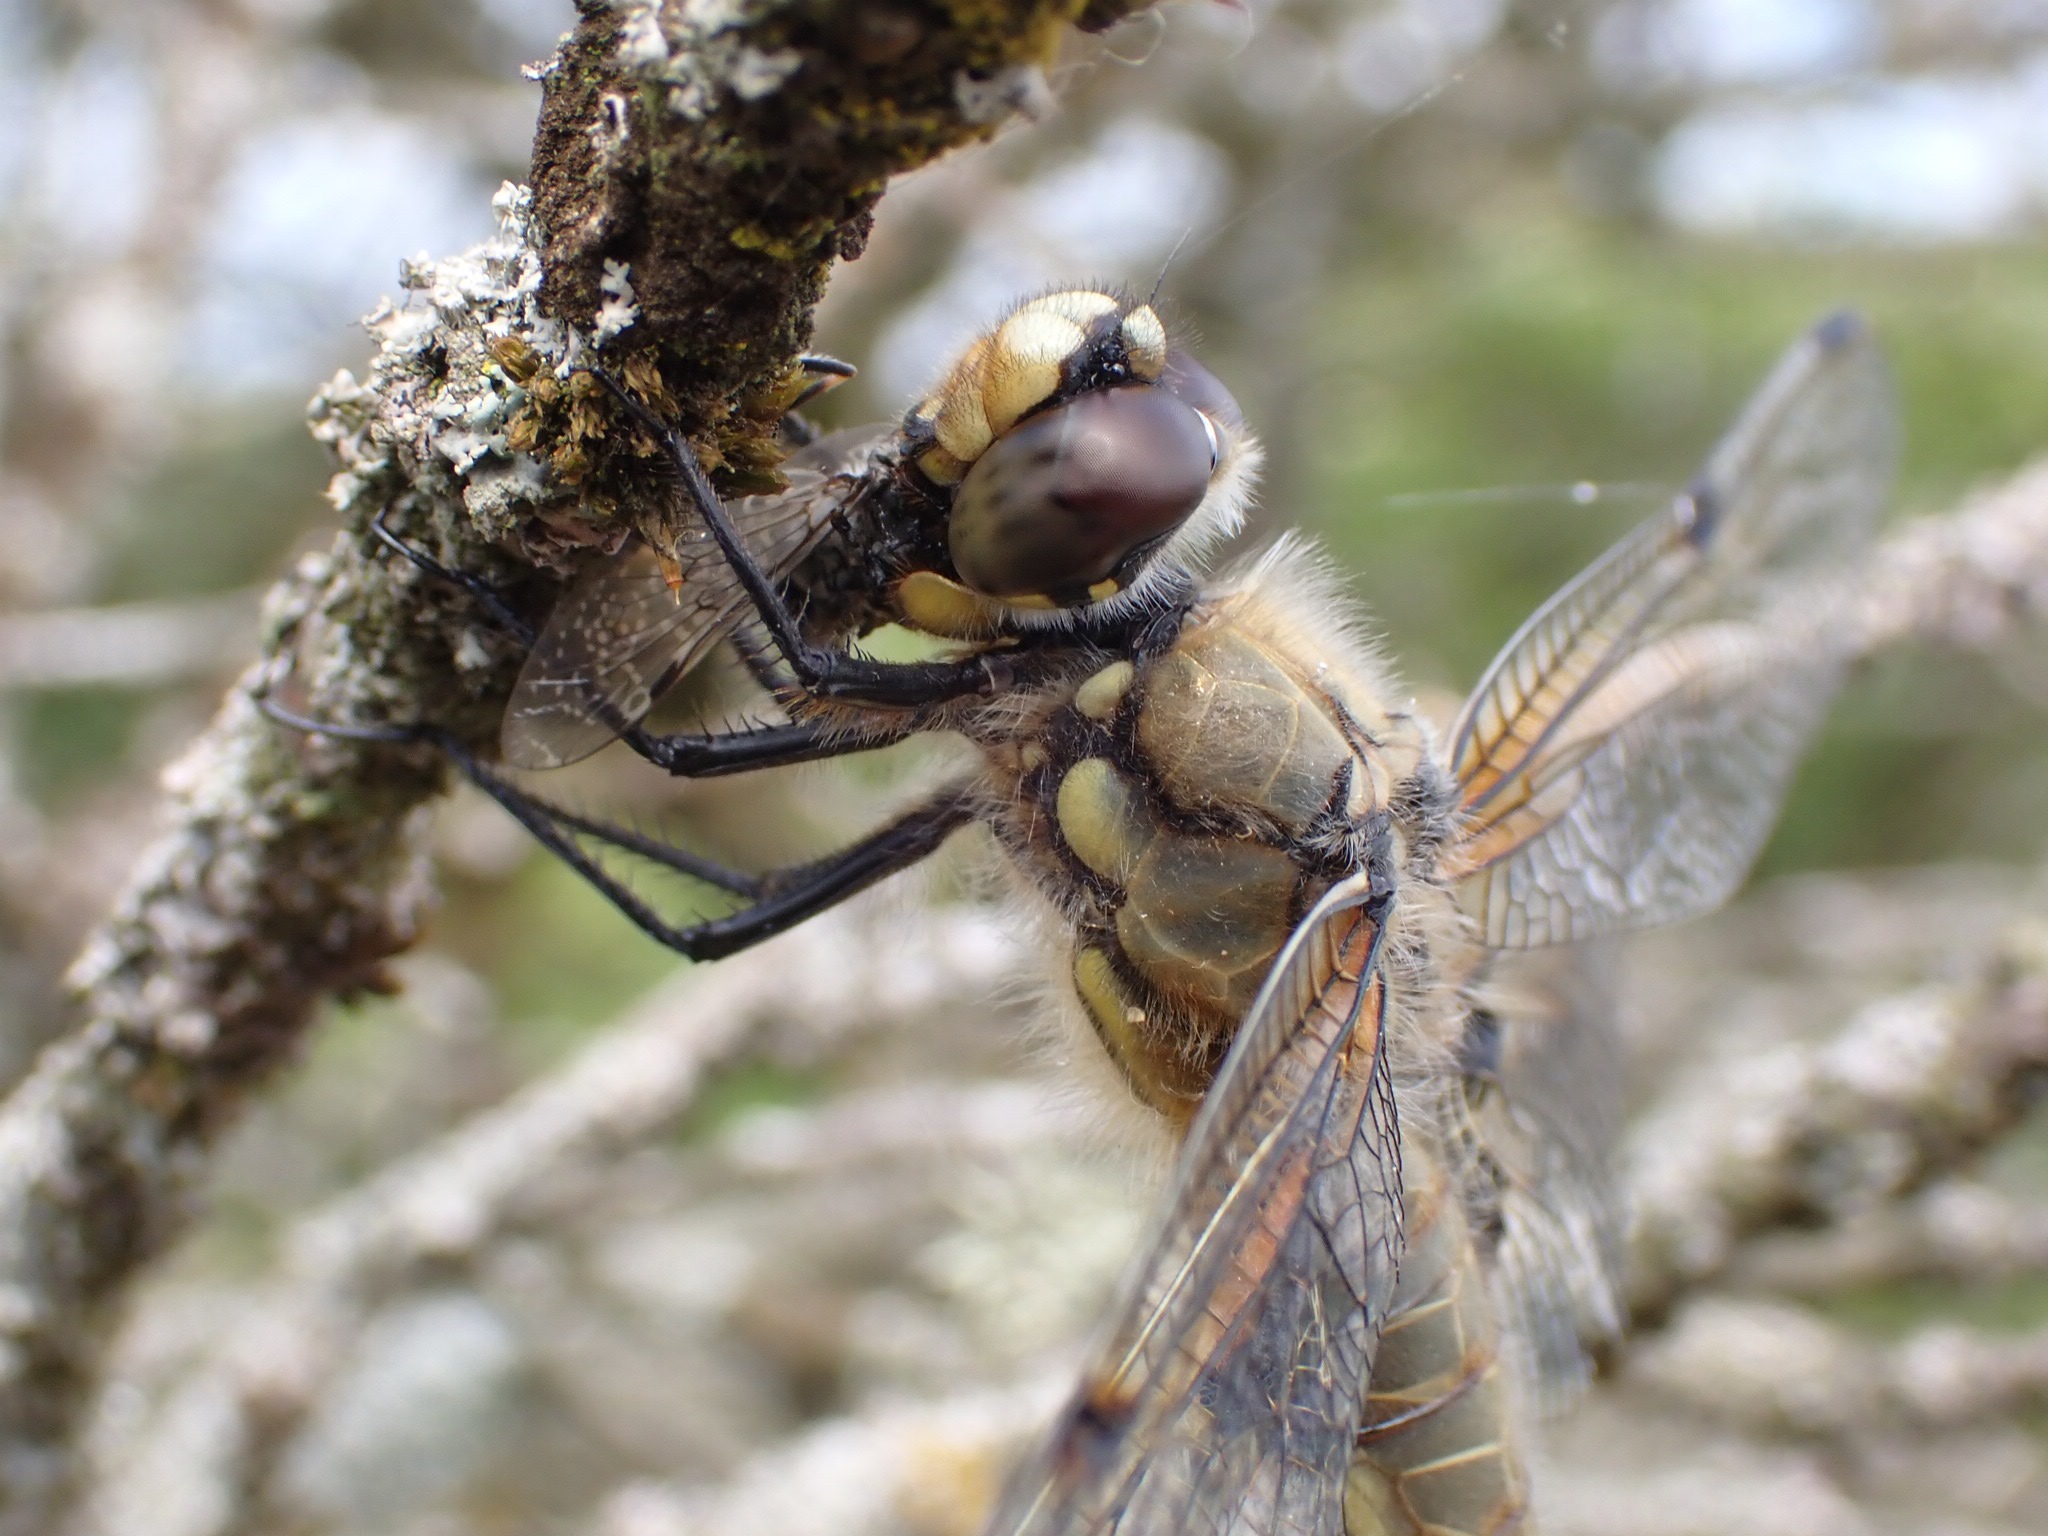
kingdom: Animalia
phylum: Arthropoda
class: Insecta
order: Odonata
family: Libellulidae
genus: Libellula
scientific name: Libellula quadrimaculata
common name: Fireplettet libel
